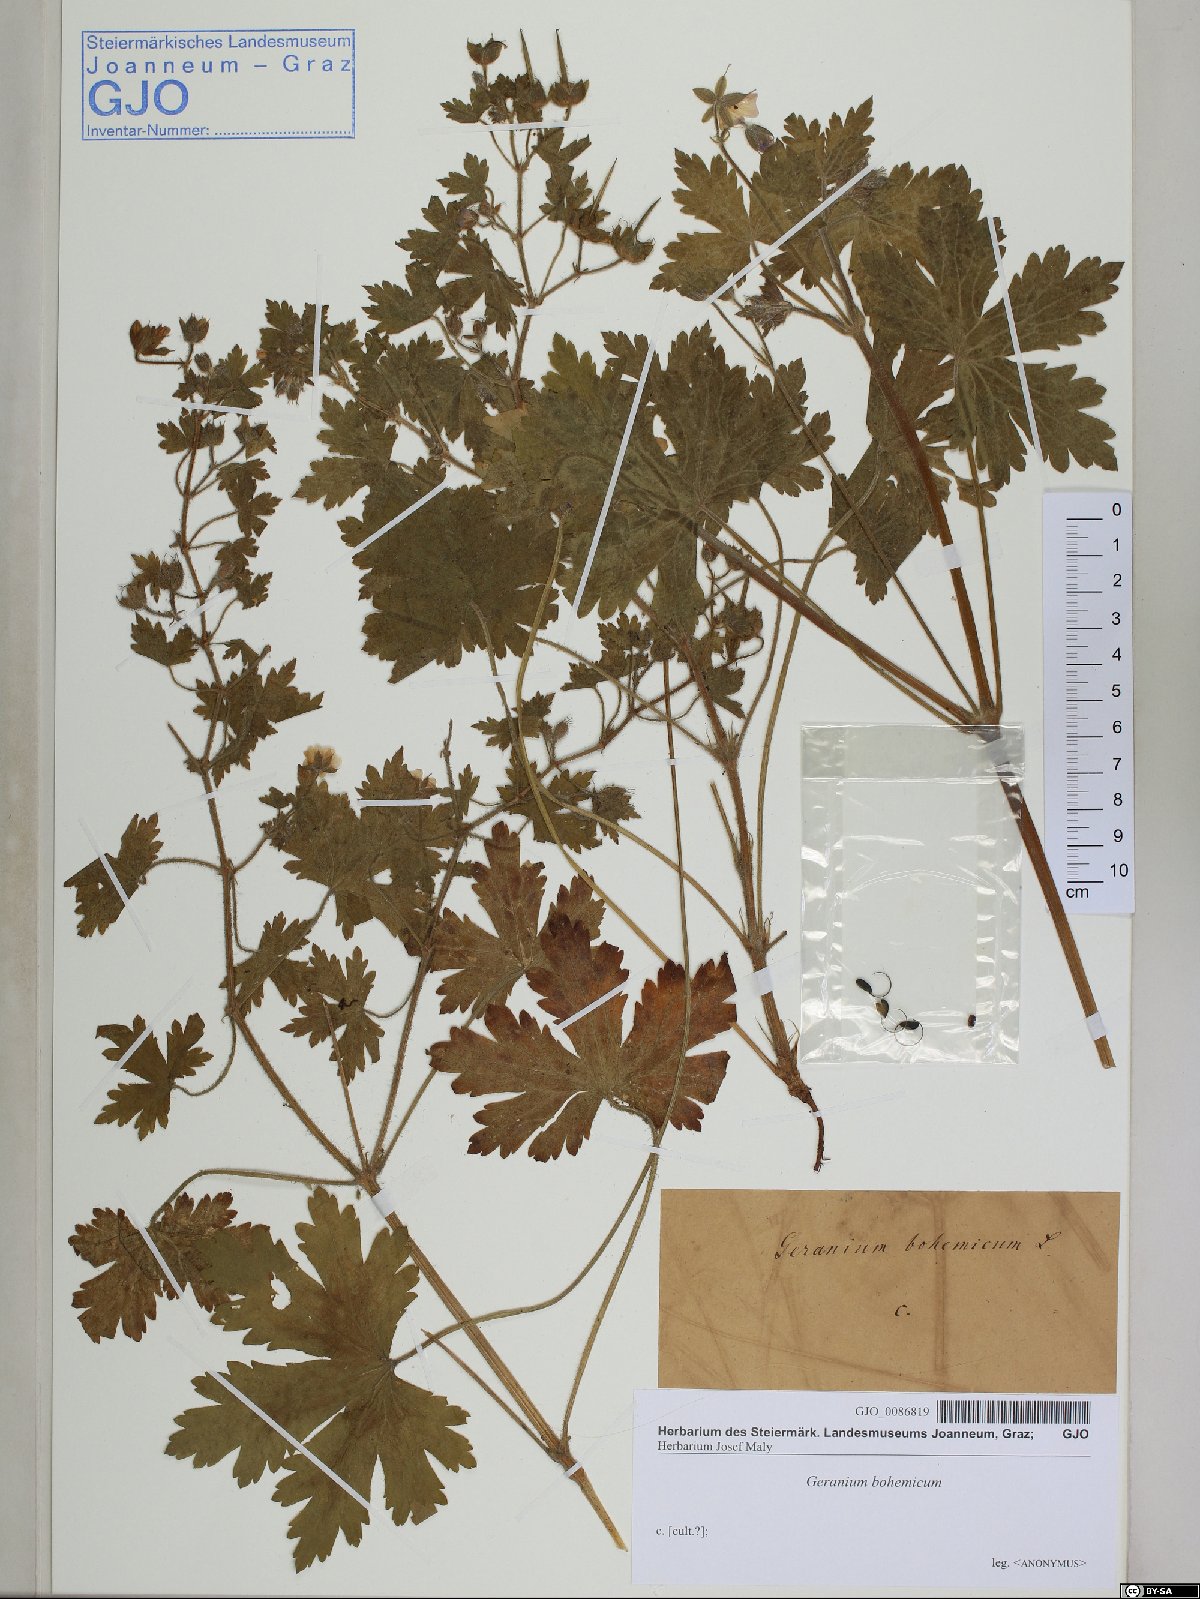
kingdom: Plantae
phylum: Tracheophyta
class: Magnoliopsida
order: Geraniales
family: Geraniaceae
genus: Geranium
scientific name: Geranium bohemicum
